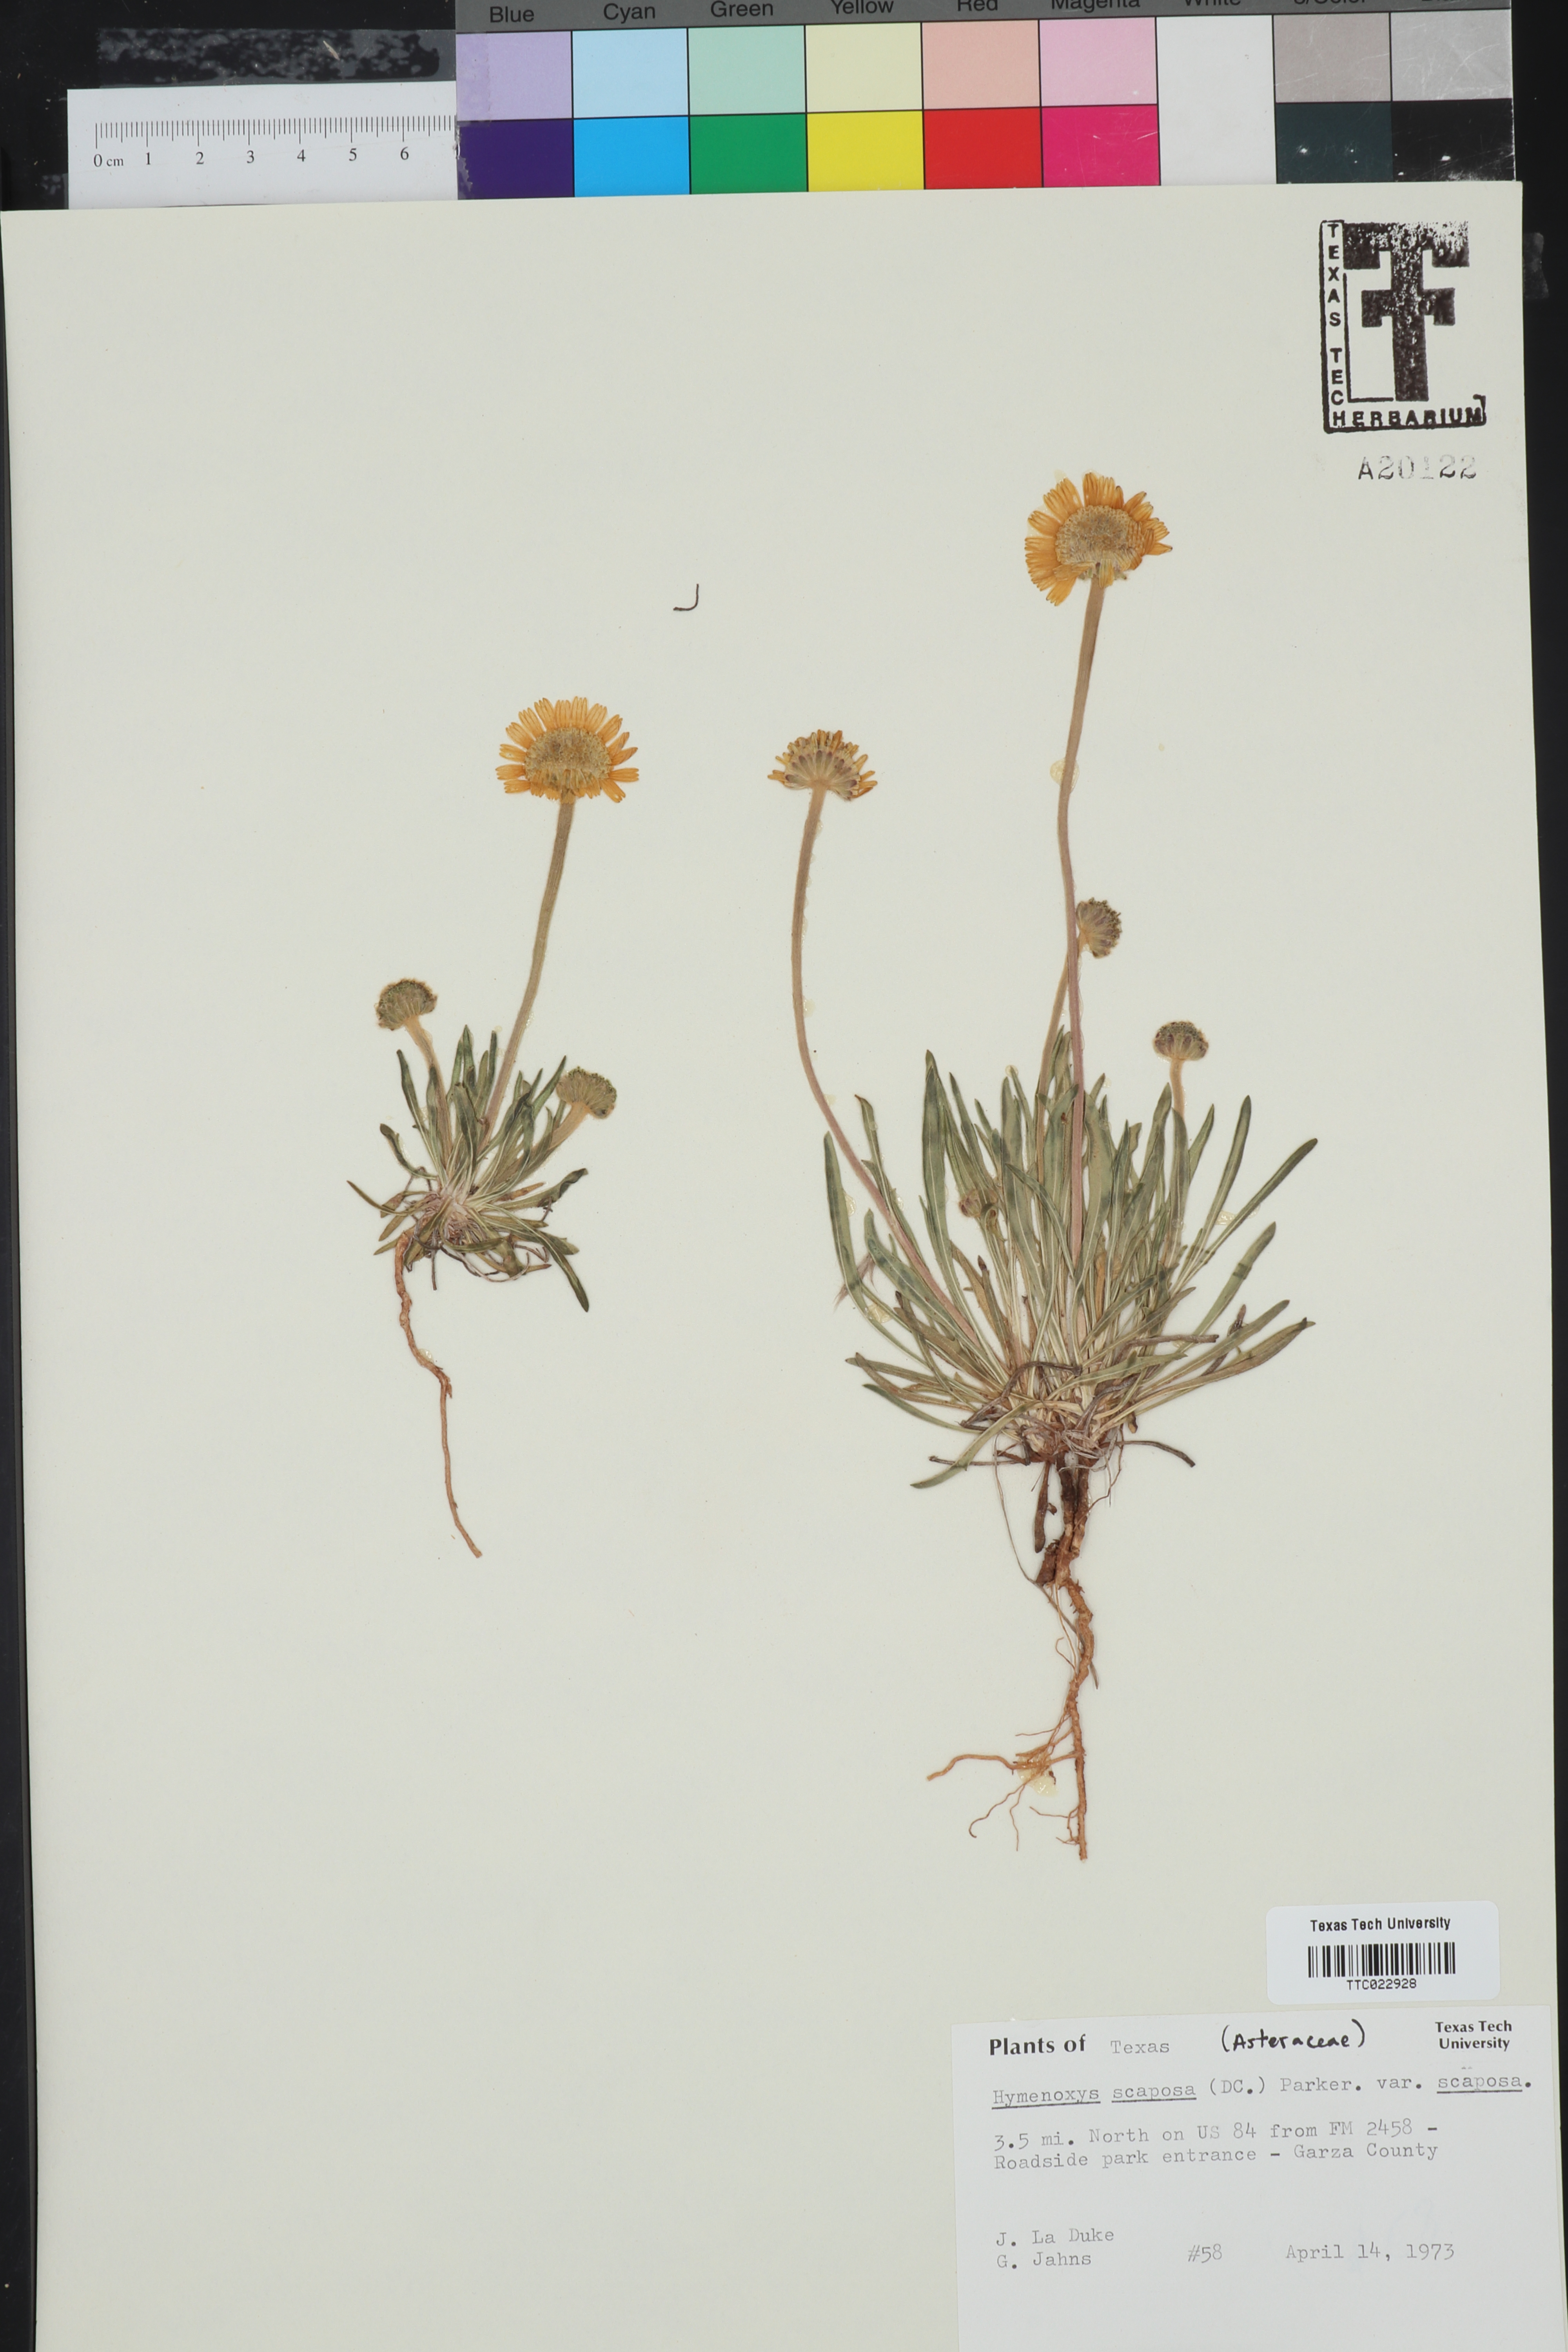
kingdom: Plantae
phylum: Tracheophyta
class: Magnoliopsida
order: Asterales
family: Asteraceae
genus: Tetraneuris
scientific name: Tetraneuris scaposa
